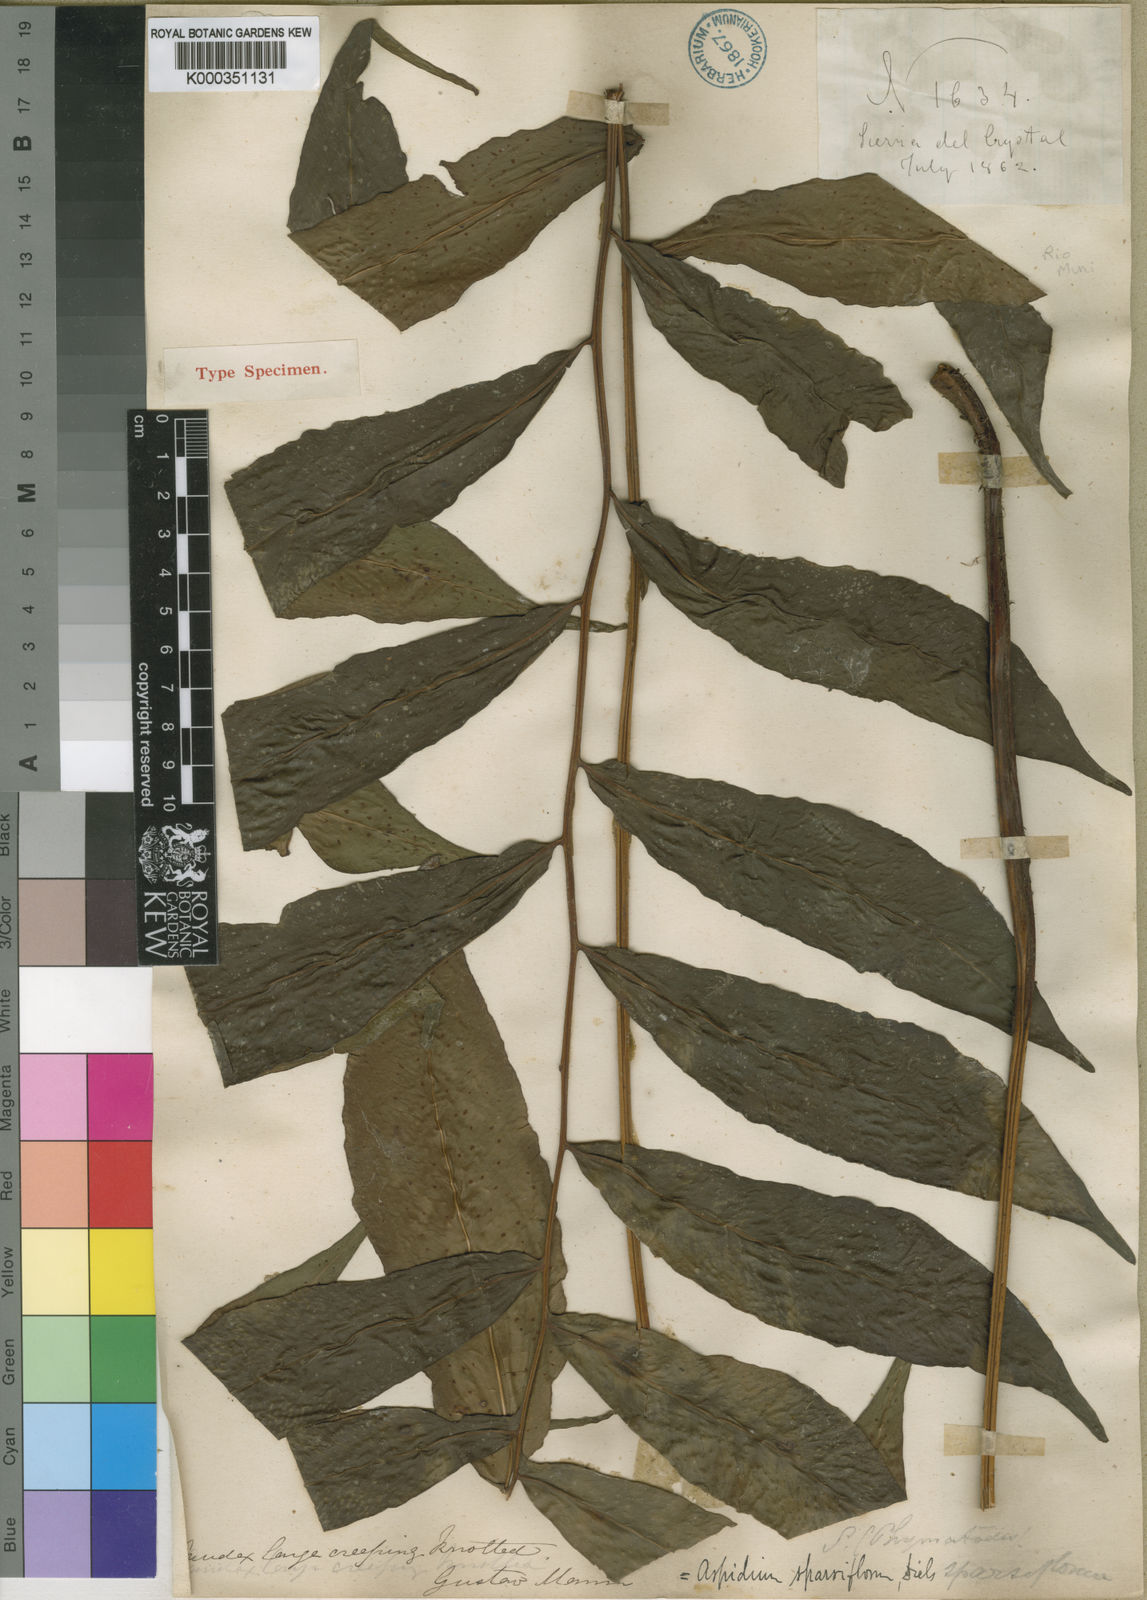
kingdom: Plantae
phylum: Tracheophyta
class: Polypodiopsida
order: Polypodiales
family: Tectariaceae
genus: Triplophyllum
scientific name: Triplophyllum varians
